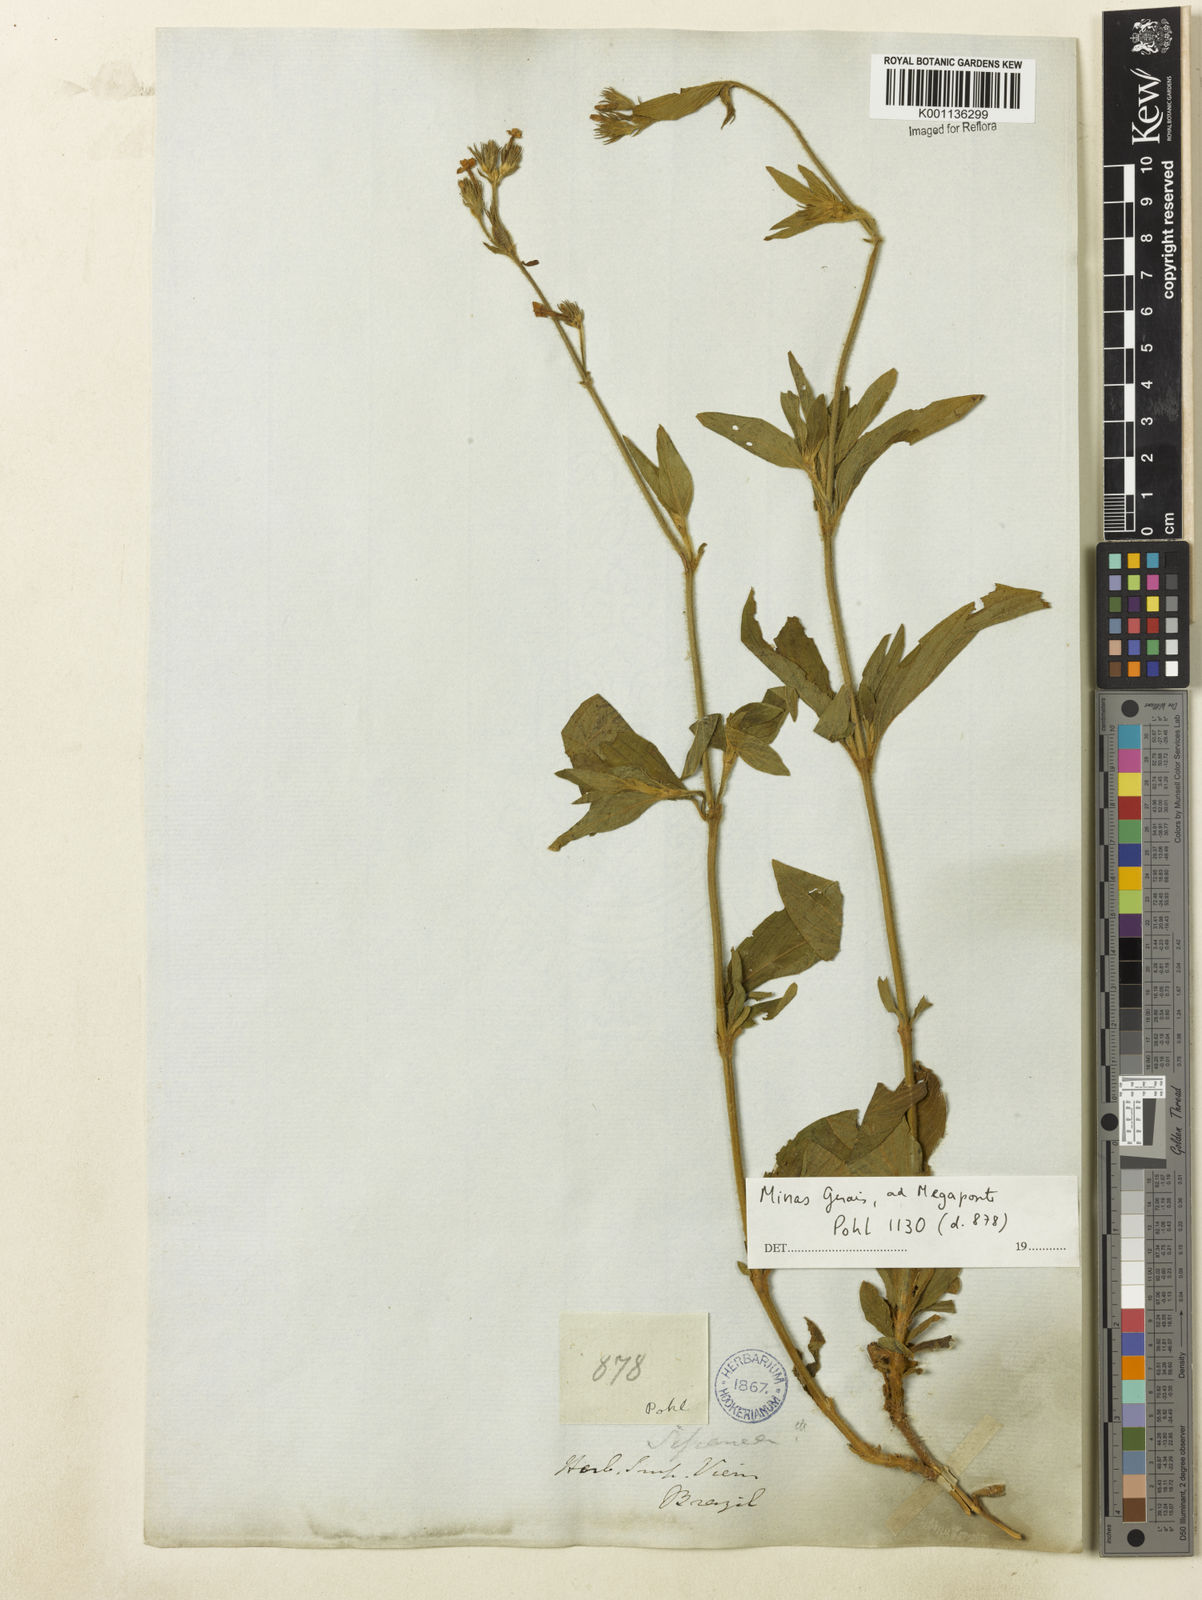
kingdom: Plantae
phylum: Tracheophyta
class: Magnoliopsida
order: Gentianales
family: Rubiaceae
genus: Sipanea
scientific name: Sipanea pratensis
